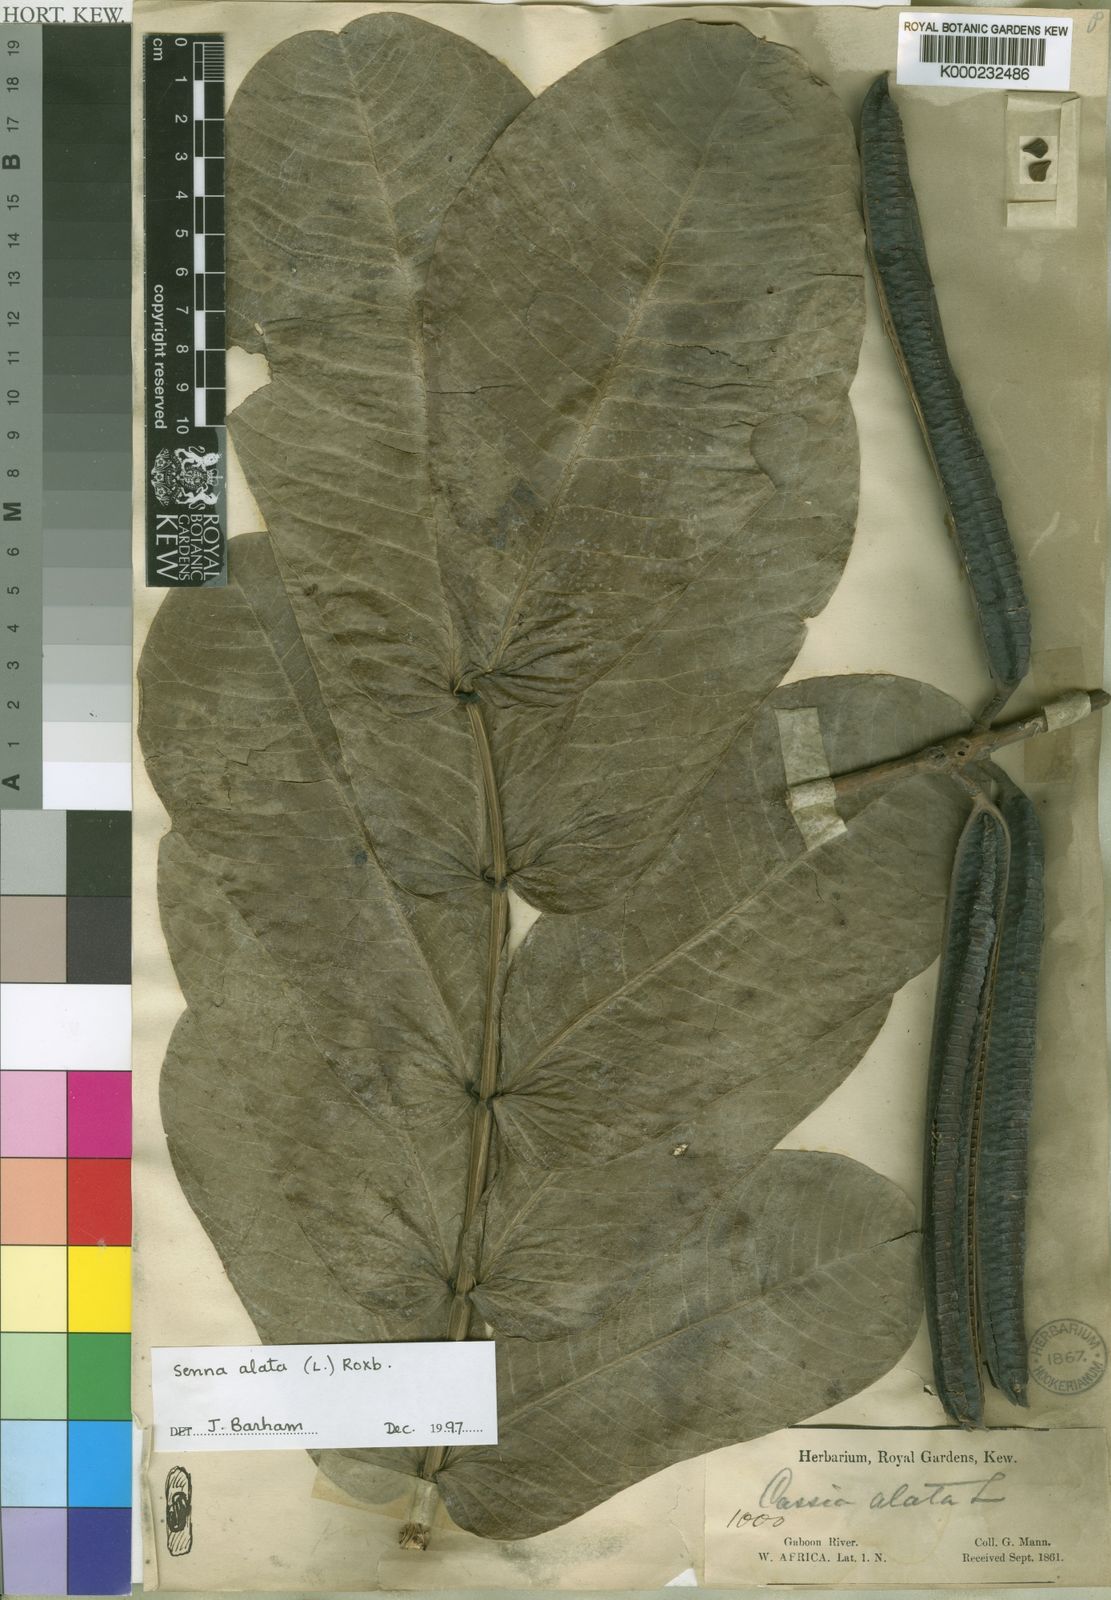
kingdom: Plantae
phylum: Tracheophyta
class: Magnoliopsida
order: Fabales
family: Fabaceae
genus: Senna
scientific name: Senna alata
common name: Emperor's candlesticks
